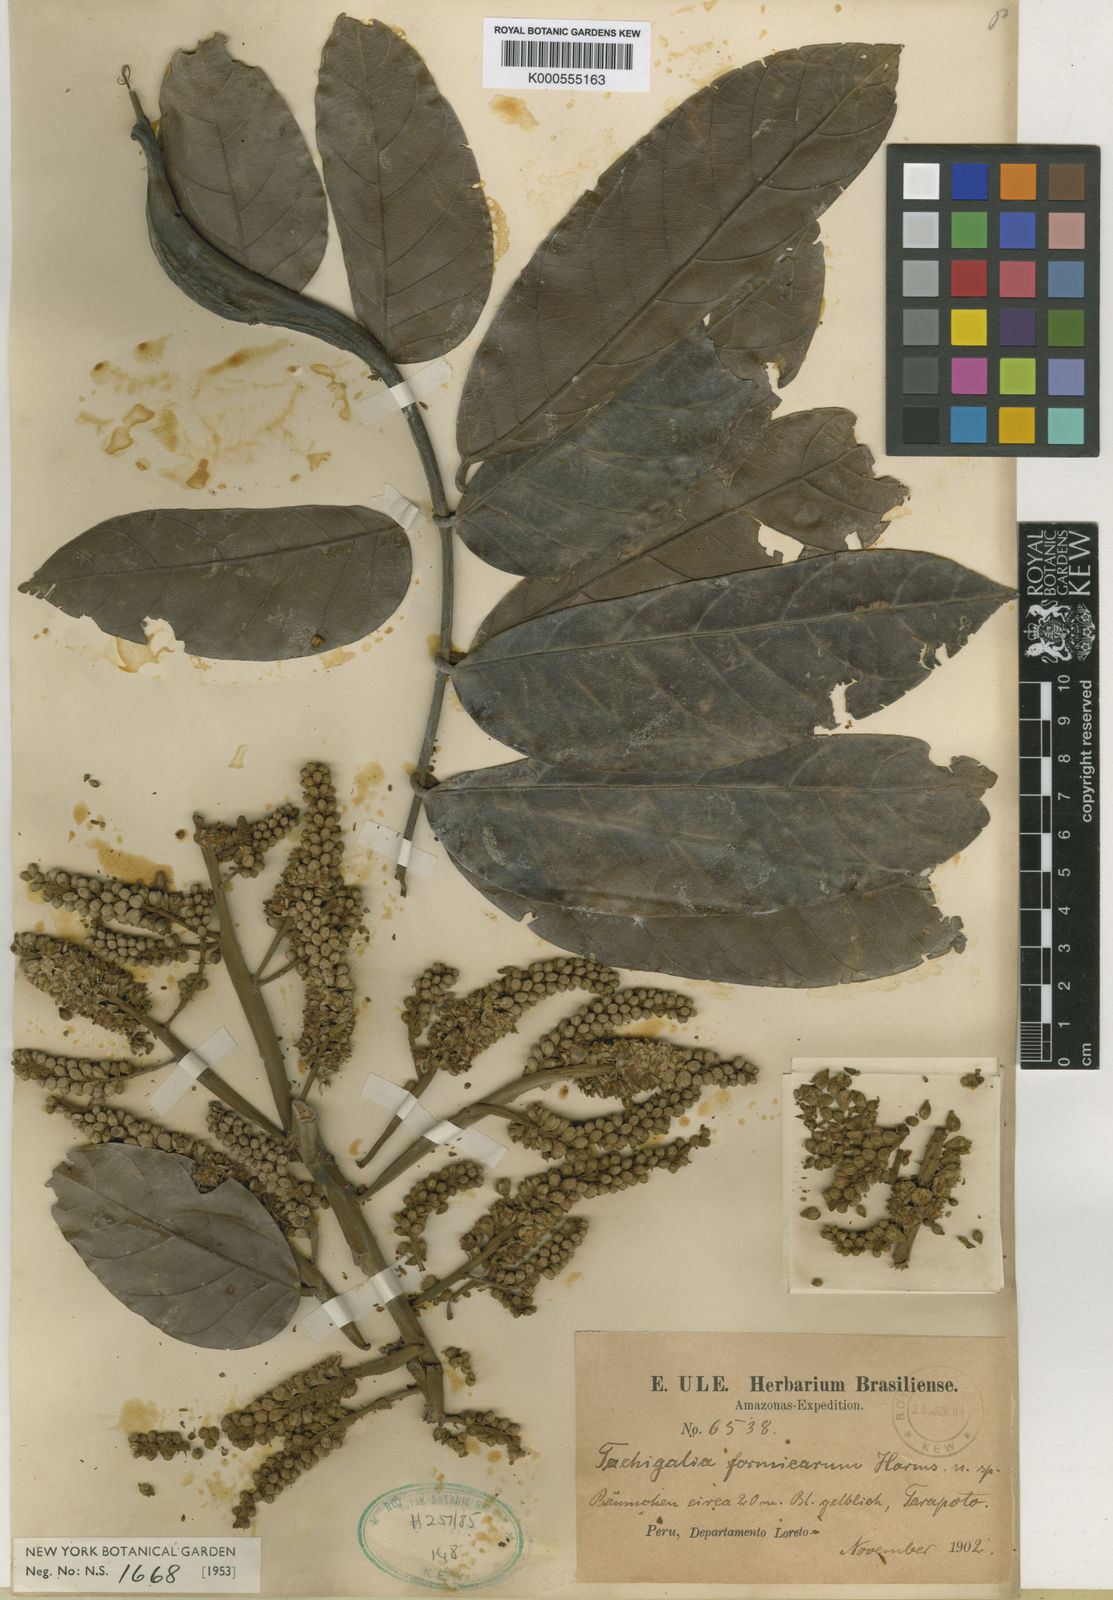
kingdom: Plantae
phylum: Tracheophyta
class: Magnoliopsida
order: Fabales
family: Fabaceae
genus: Tachigali
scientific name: Tachigali formicarum
